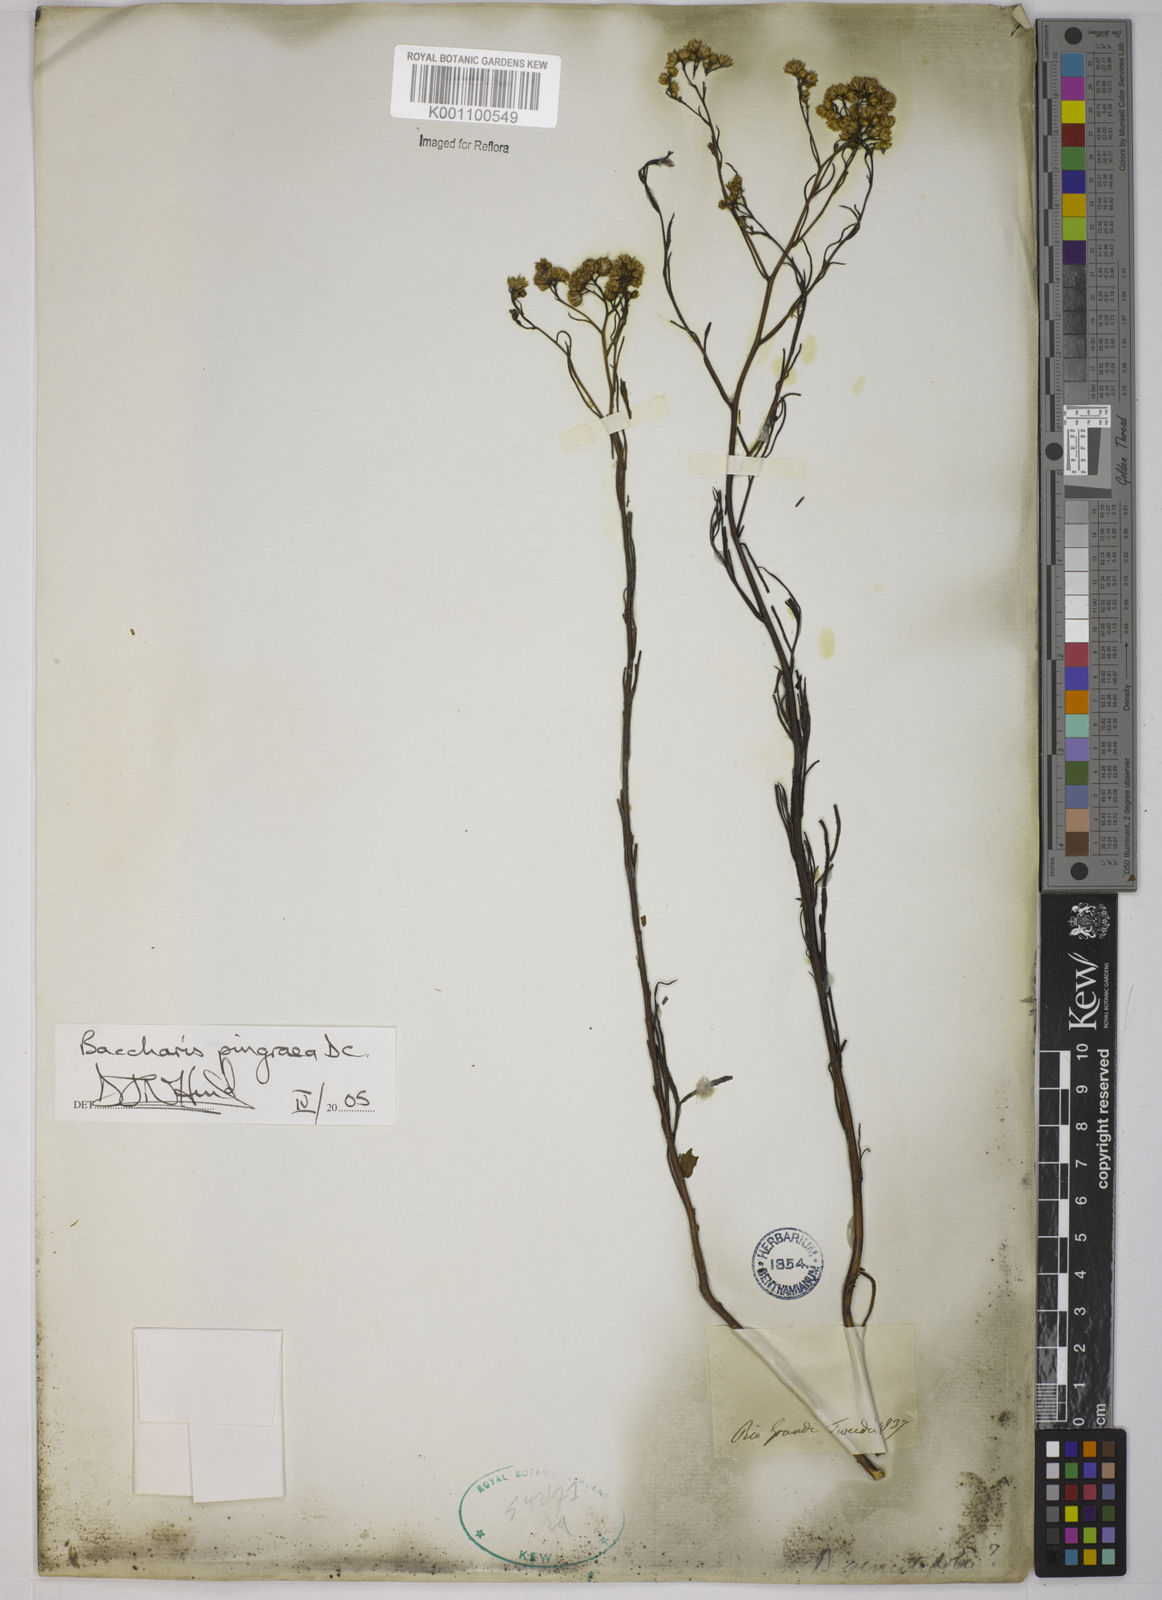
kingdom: Plantae
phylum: Tracheophyta
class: Magnoliopsida
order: Asterales
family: Asteraceae
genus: Baccharis
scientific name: Baccharis glutinosa
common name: Saltmarsh baccharis
